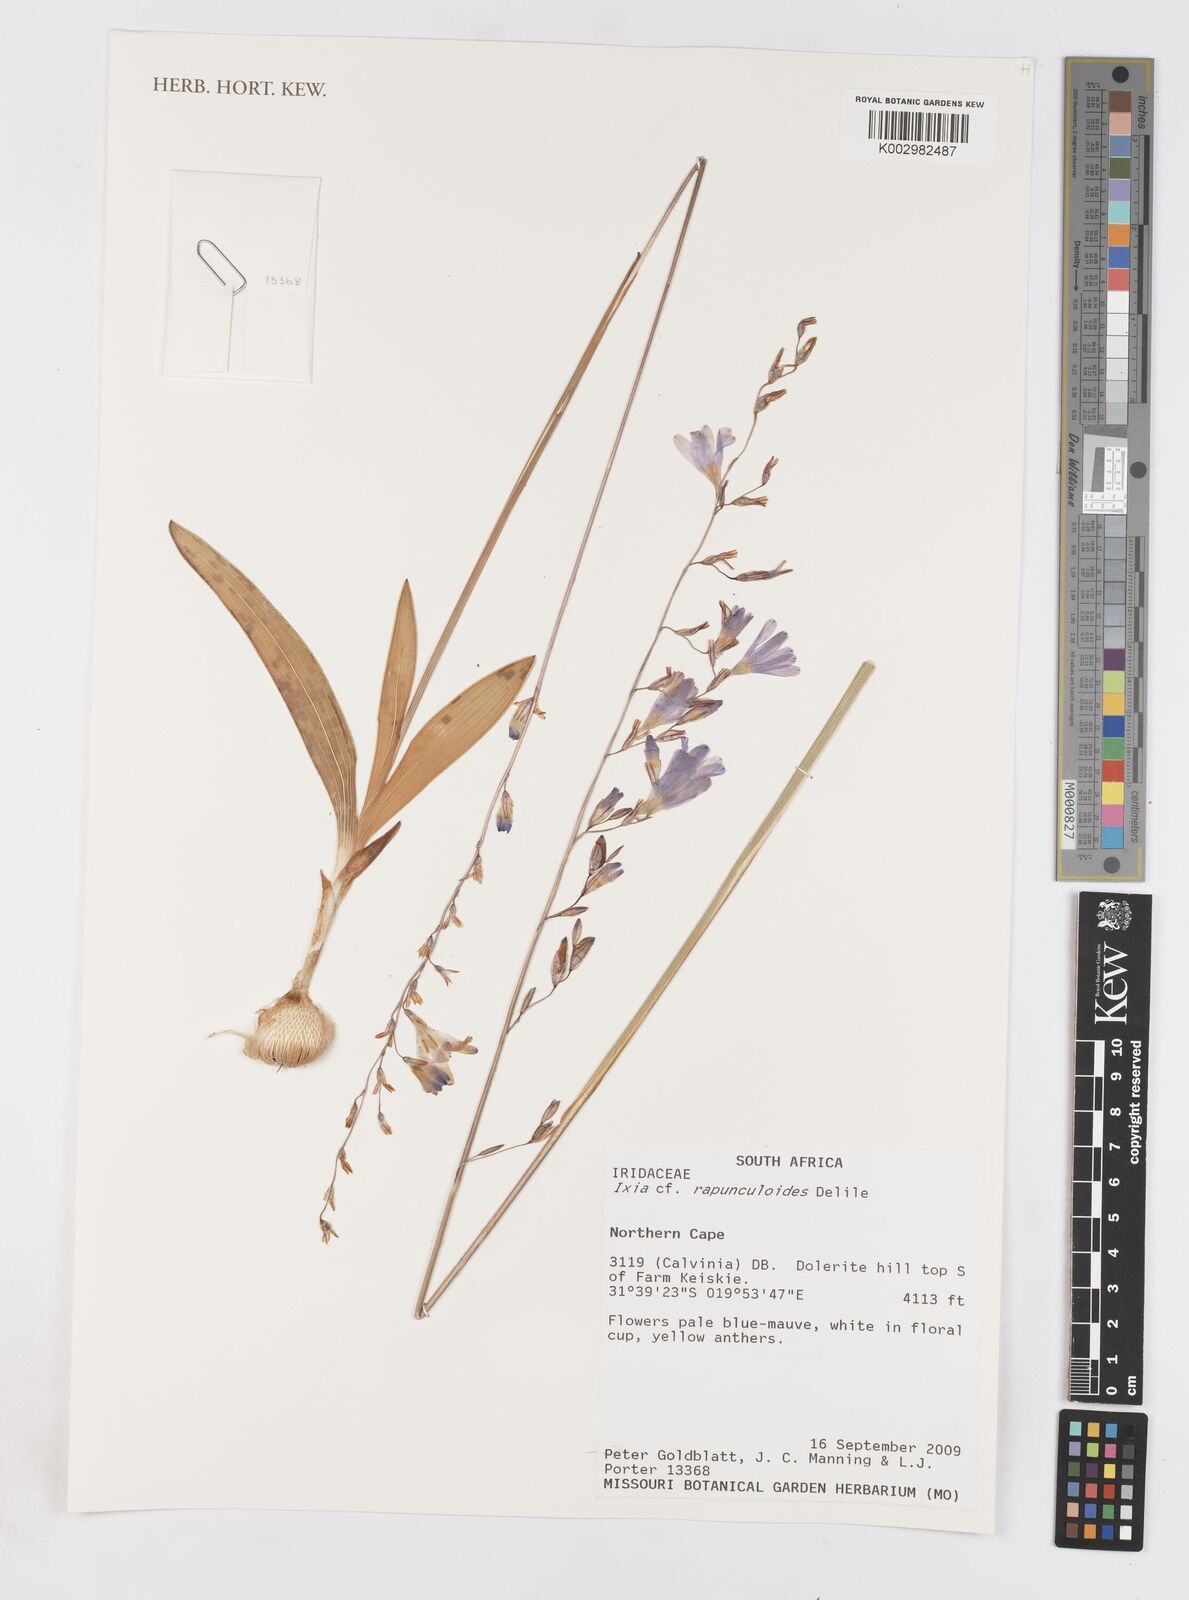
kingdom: Plantae
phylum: Tracheophyta
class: Liliopsida
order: Asparagales
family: Iridaceae
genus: Ixia
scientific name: Ixia rapunculoides
